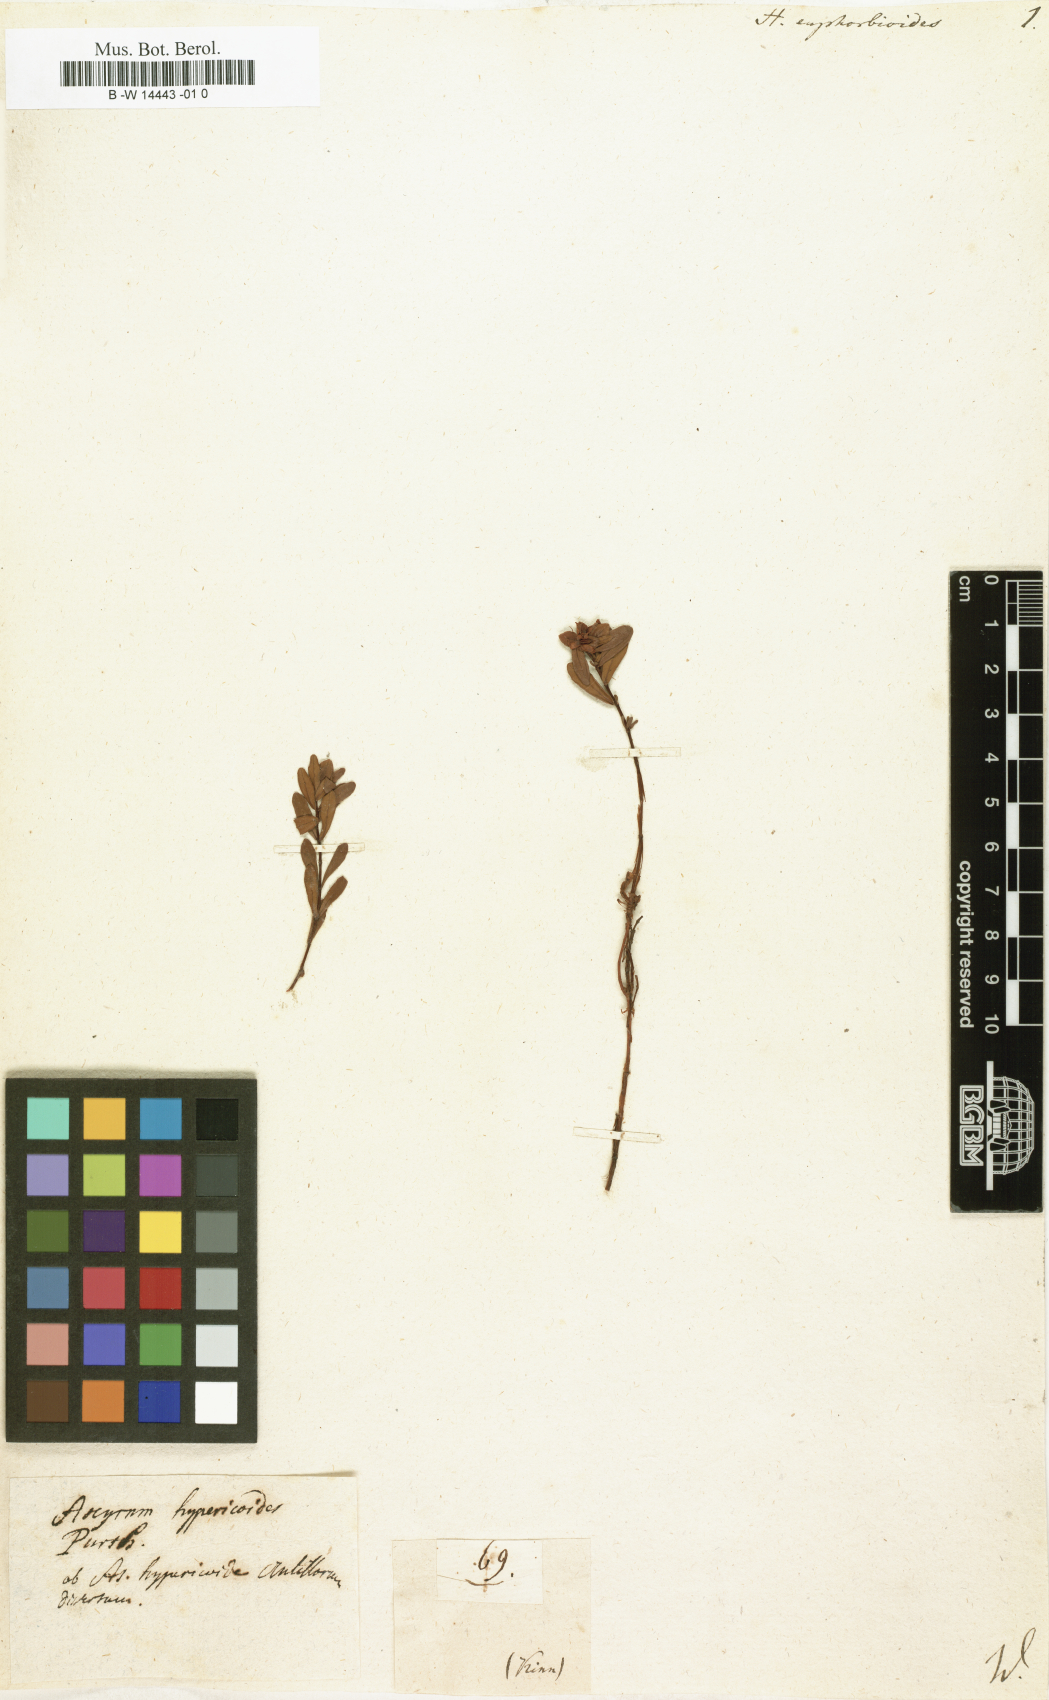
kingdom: Plantae
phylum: Tracheophyta
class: Magnoliopsida
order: Malpighiales
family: Hypericaceae
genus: Hypericum
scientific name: Hypericum mutilum
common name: Dwarf st. john's-wort
